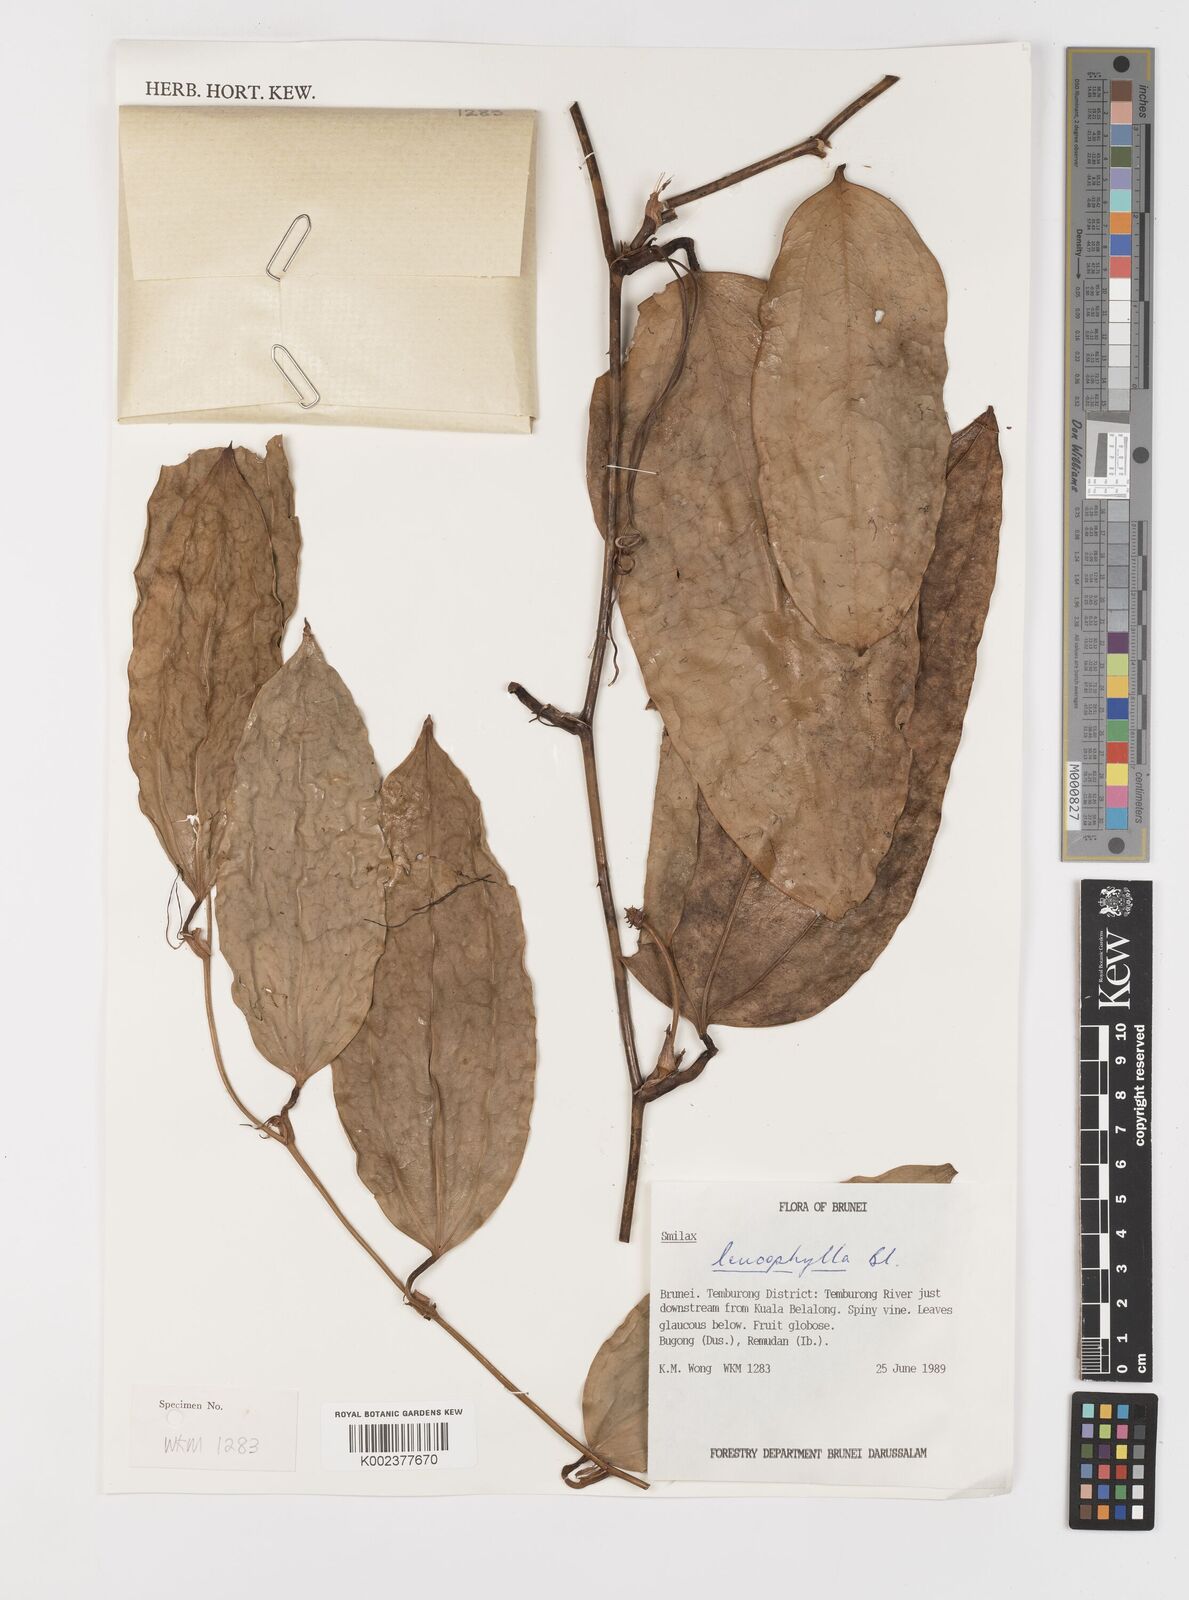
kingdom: Plantae
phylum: Tracheophyta
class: Liliopsida
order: Liliales
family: Smilacaceae
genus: Smilax
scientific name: Smilax leucophylla
